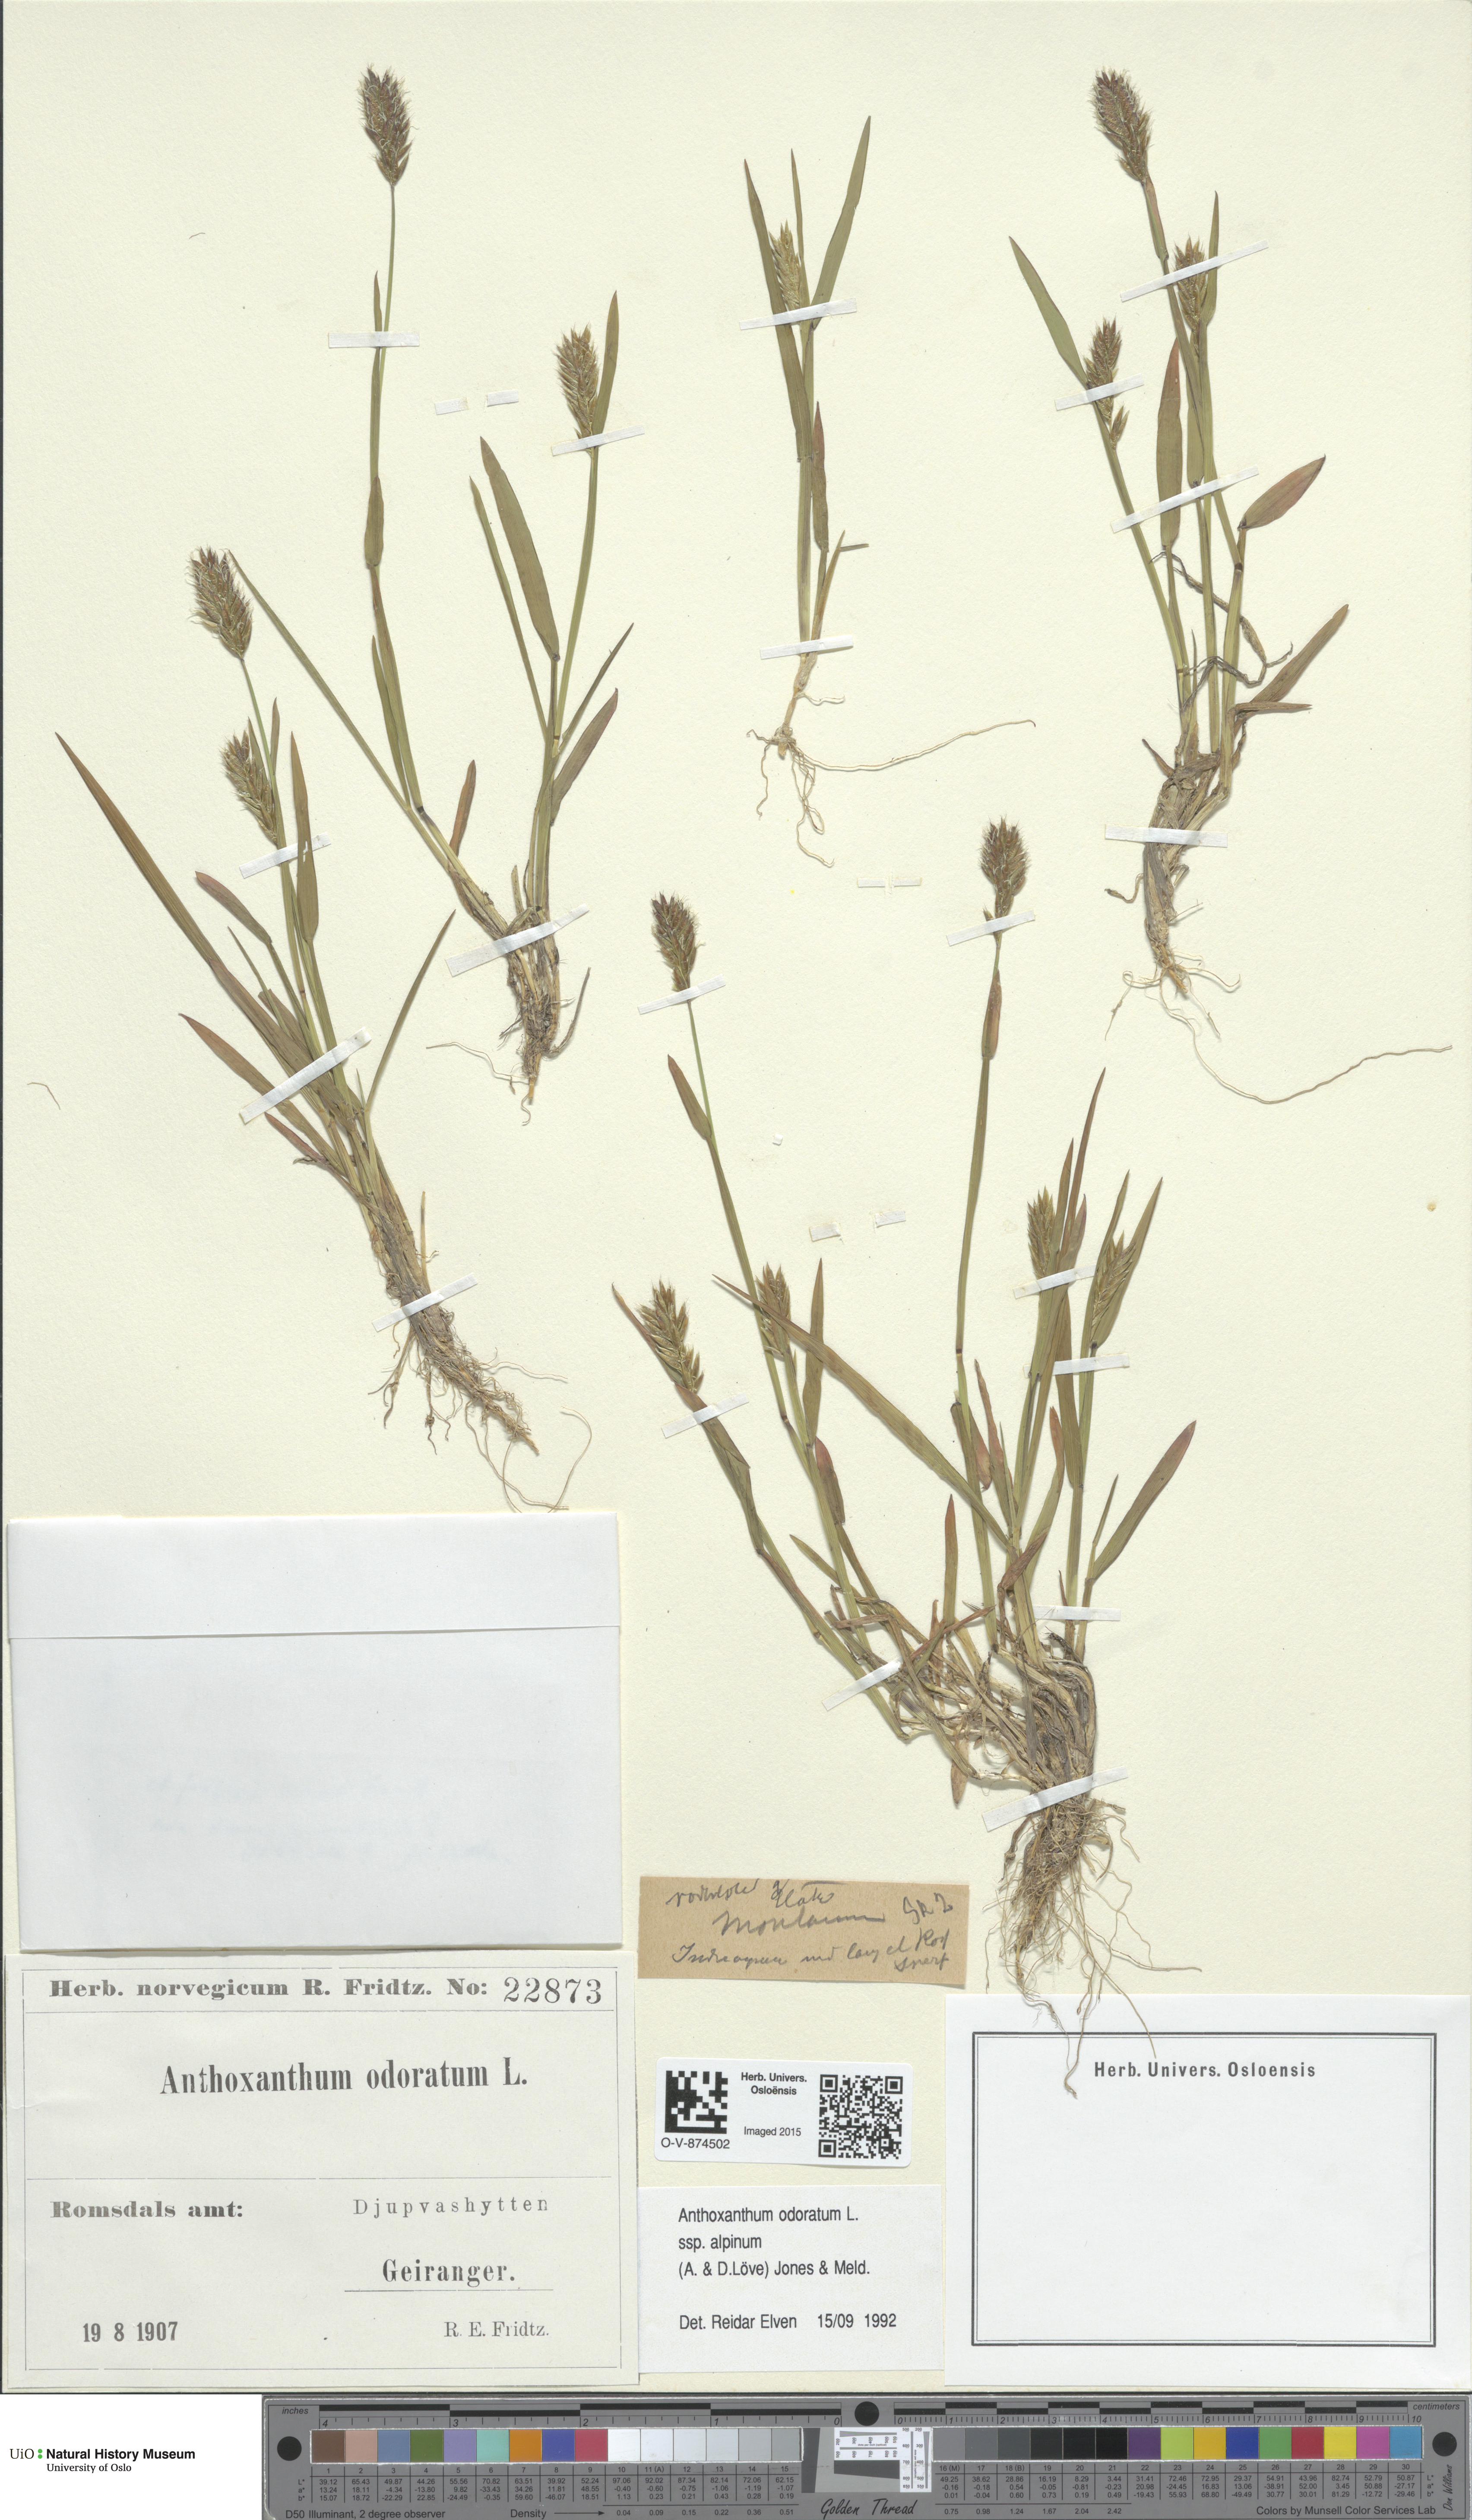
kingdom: Plantae
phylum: Tracheophyta
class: Liliopsida
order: Poales
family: Poaceae
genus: Anthoxanthum
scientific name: Anthoxanthum nipponicum
